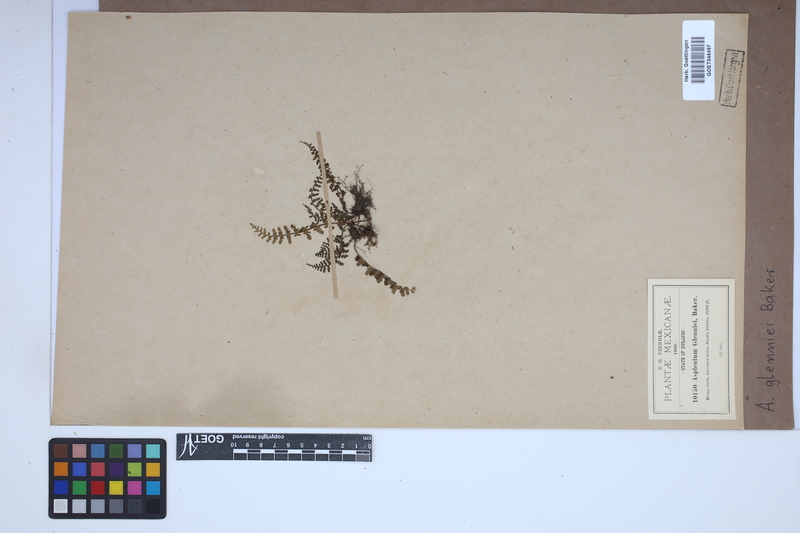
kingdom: Plantae
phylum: Tracheophyta
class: Polypodiopsida
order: Polypodiales
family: Aspleniaceae
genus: Asplenium
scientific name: Asplenium exiguum
